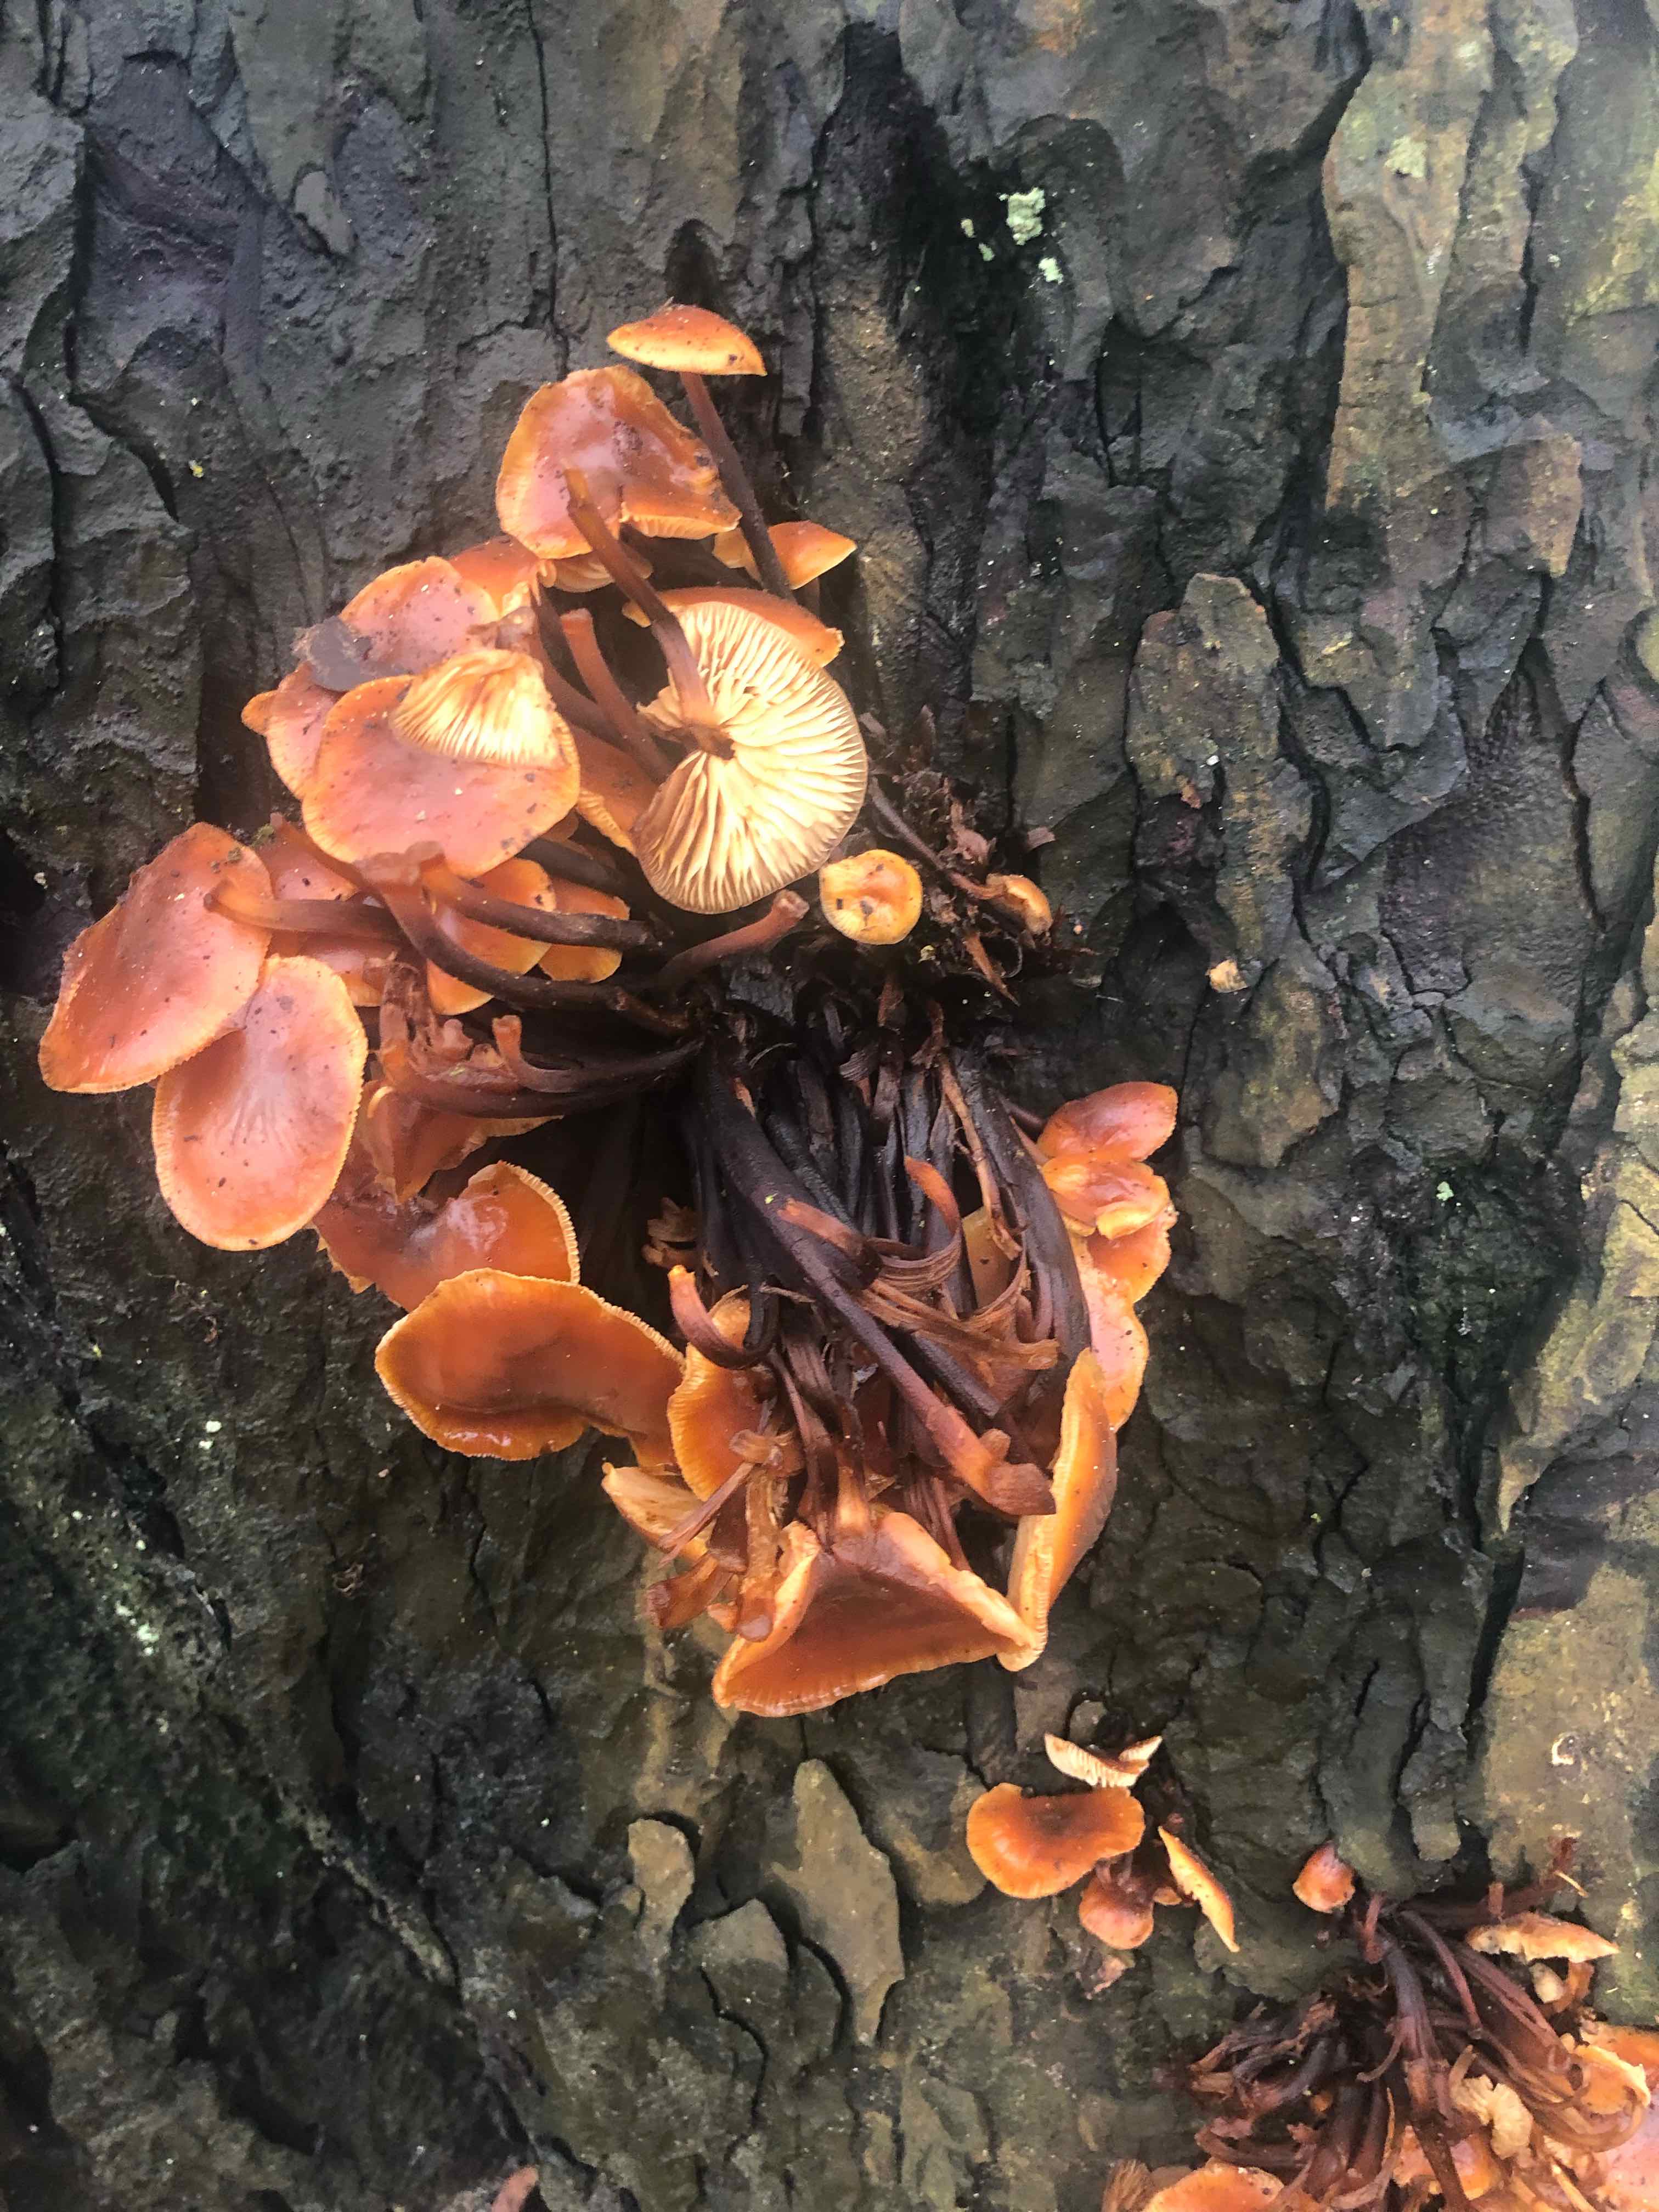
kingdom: Fungi
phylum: Basidiomycota
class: Agaricomycetes
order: Agaricales
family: Physalacriaceae
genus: Flammulina
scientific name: Flammulina velutipes
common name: gul fløjlsfod
